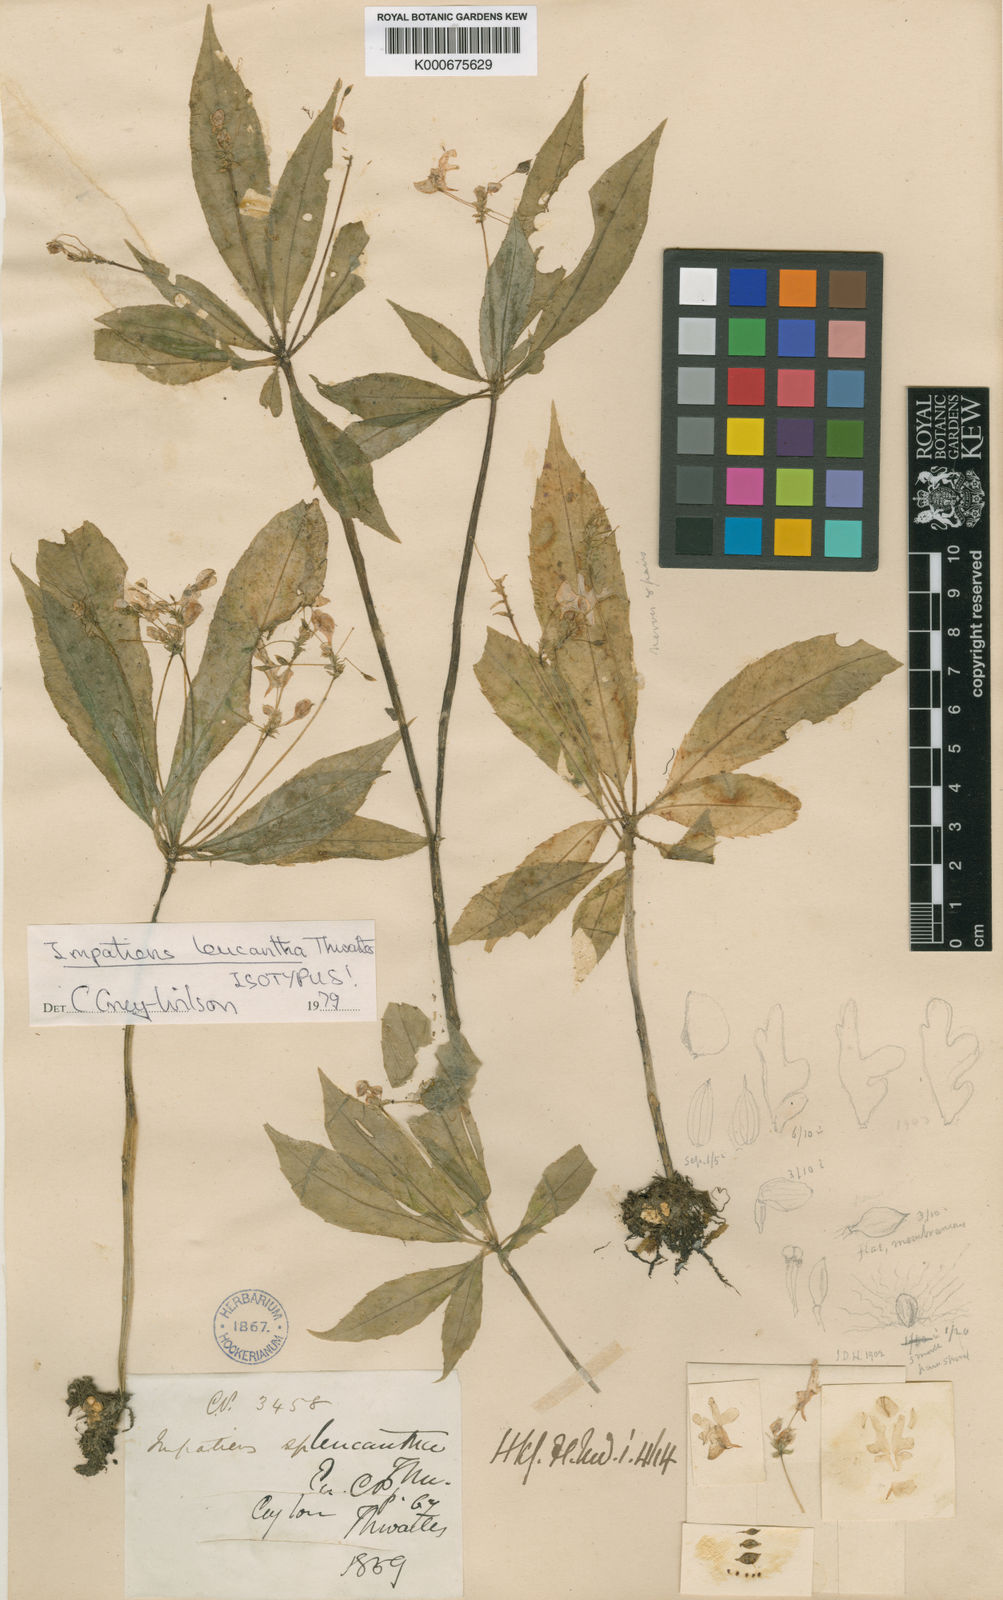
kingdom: Plantae
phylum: Tracheophyta
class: Magnoliopsida
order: Ericales
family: Balsaminaceae
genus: Impatiens
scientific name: Impatiens leucantha
